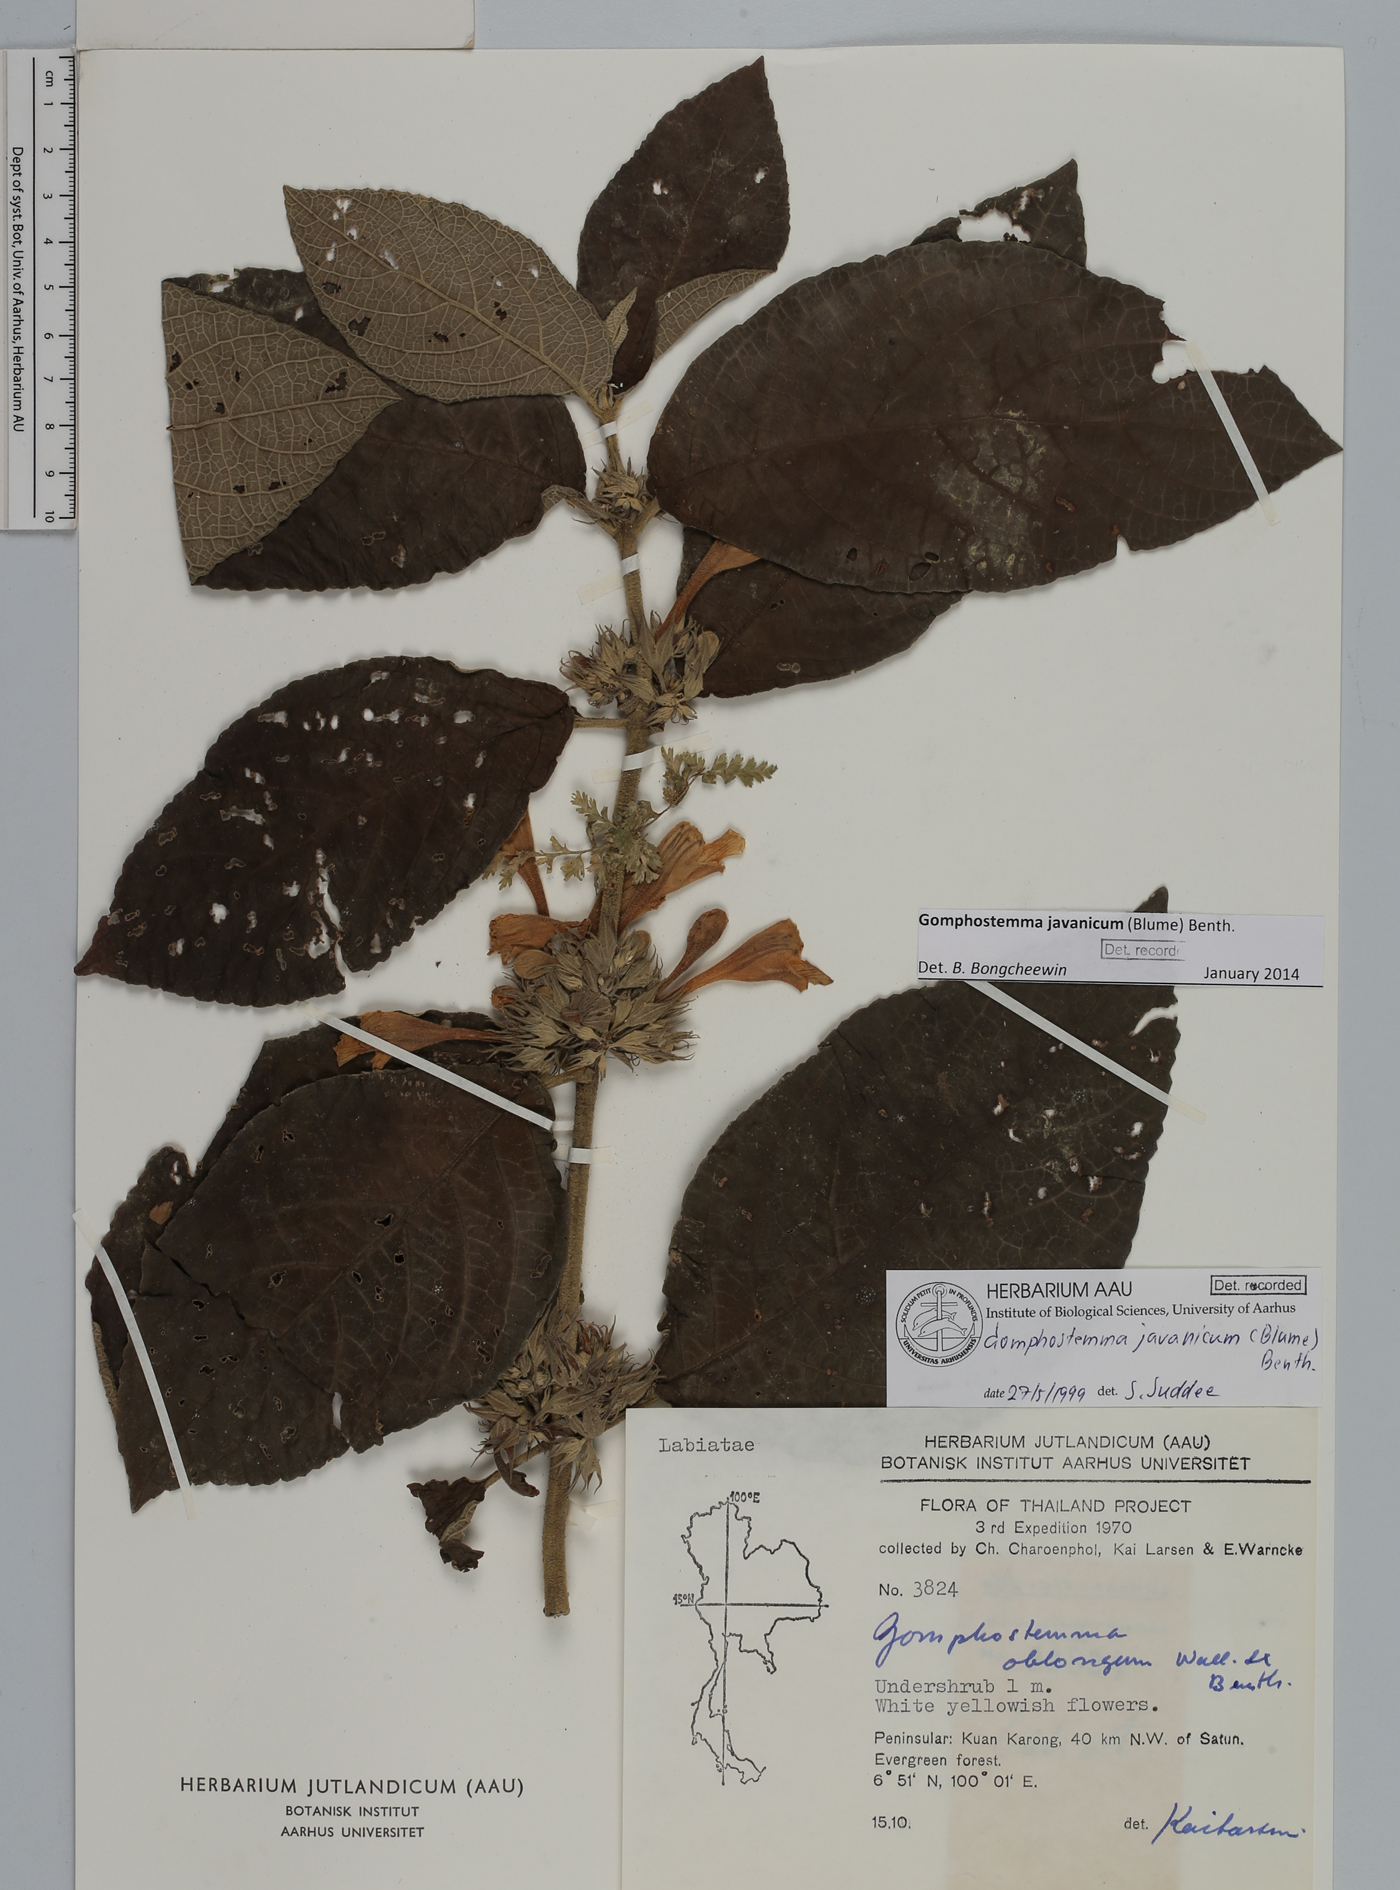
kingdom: Plantae
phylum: Tracheophyta
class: Magnoliopsida
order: Lamiales
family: Lamiaceae
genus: Gomphostemma
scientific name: Gomphostemma javanicum
